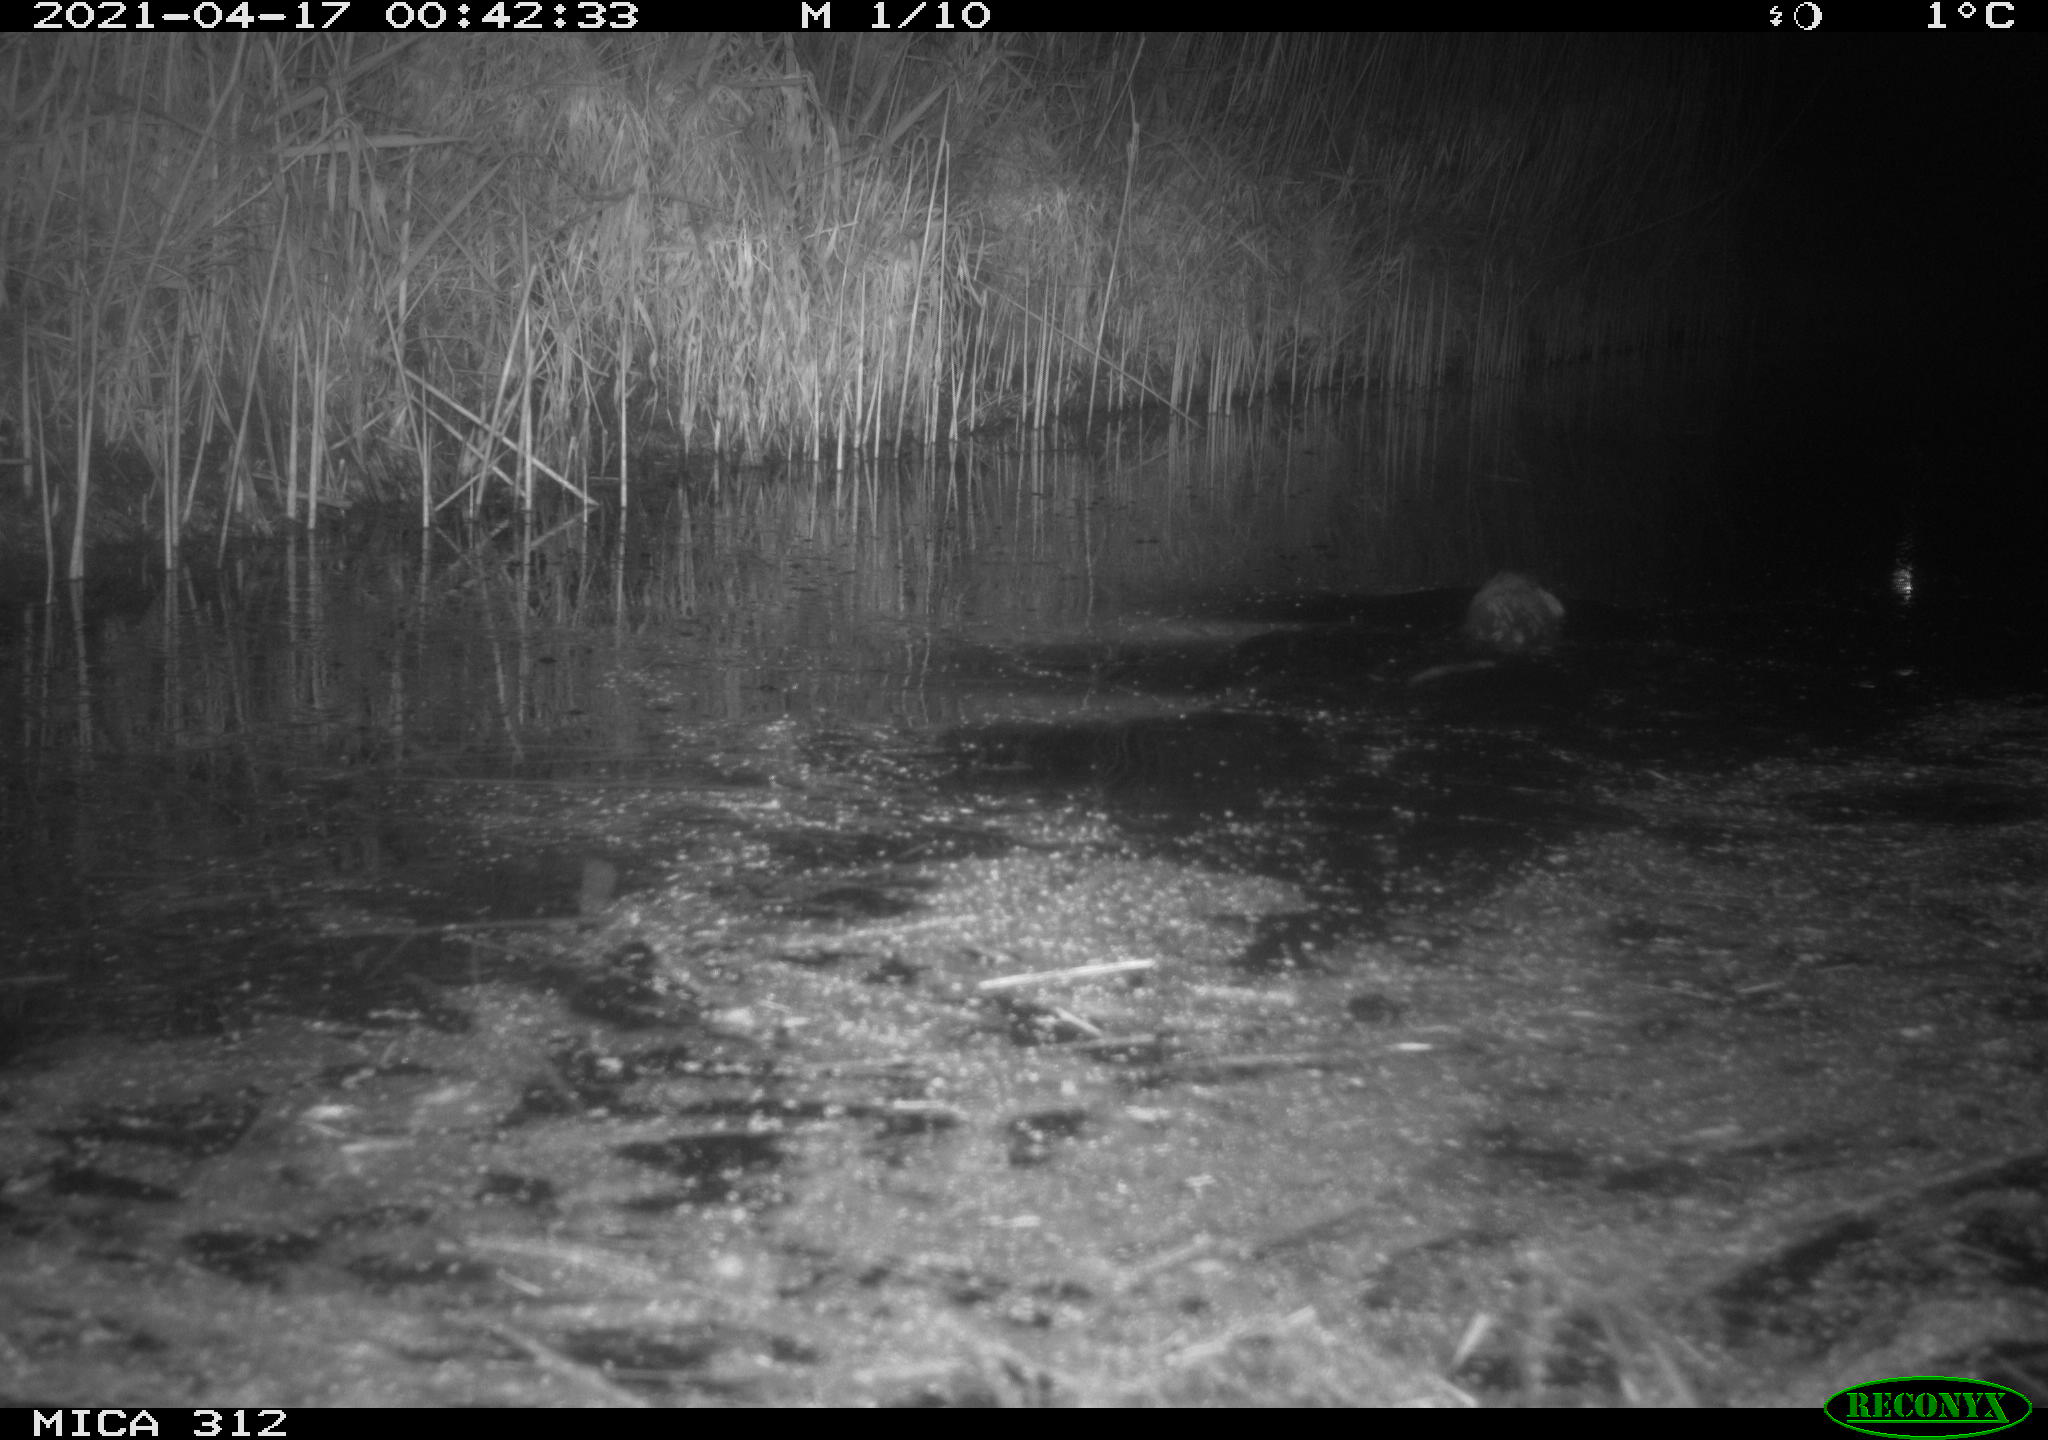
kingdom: Animalia
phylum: Chordata
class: Mammalia
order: Rodentia
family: Cricetidae
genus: Ondatra
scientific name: Ondatra zibethicus
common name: Muskrat
